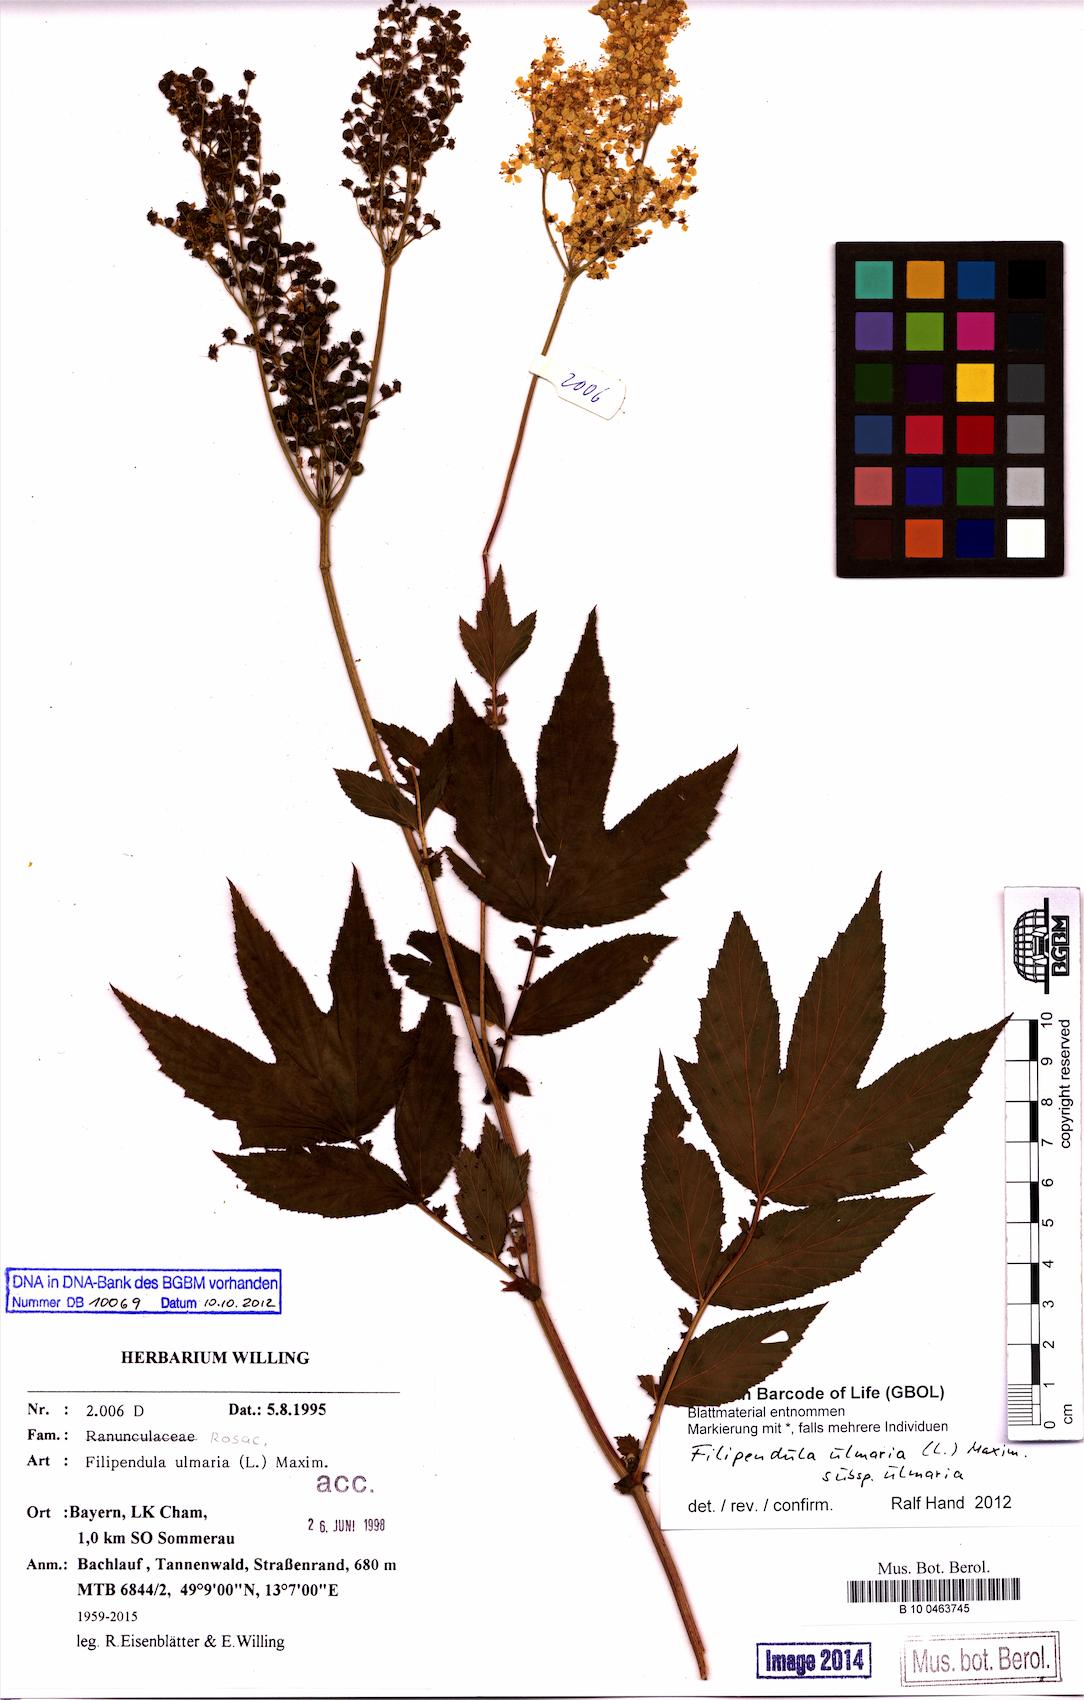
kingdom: Plantae
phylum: Tracheophyta
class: Magnoliopsida
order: Rosales
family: Rosaceae
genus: Filipendula
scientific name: Filipendula ulmaria
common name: Meadowsweet
